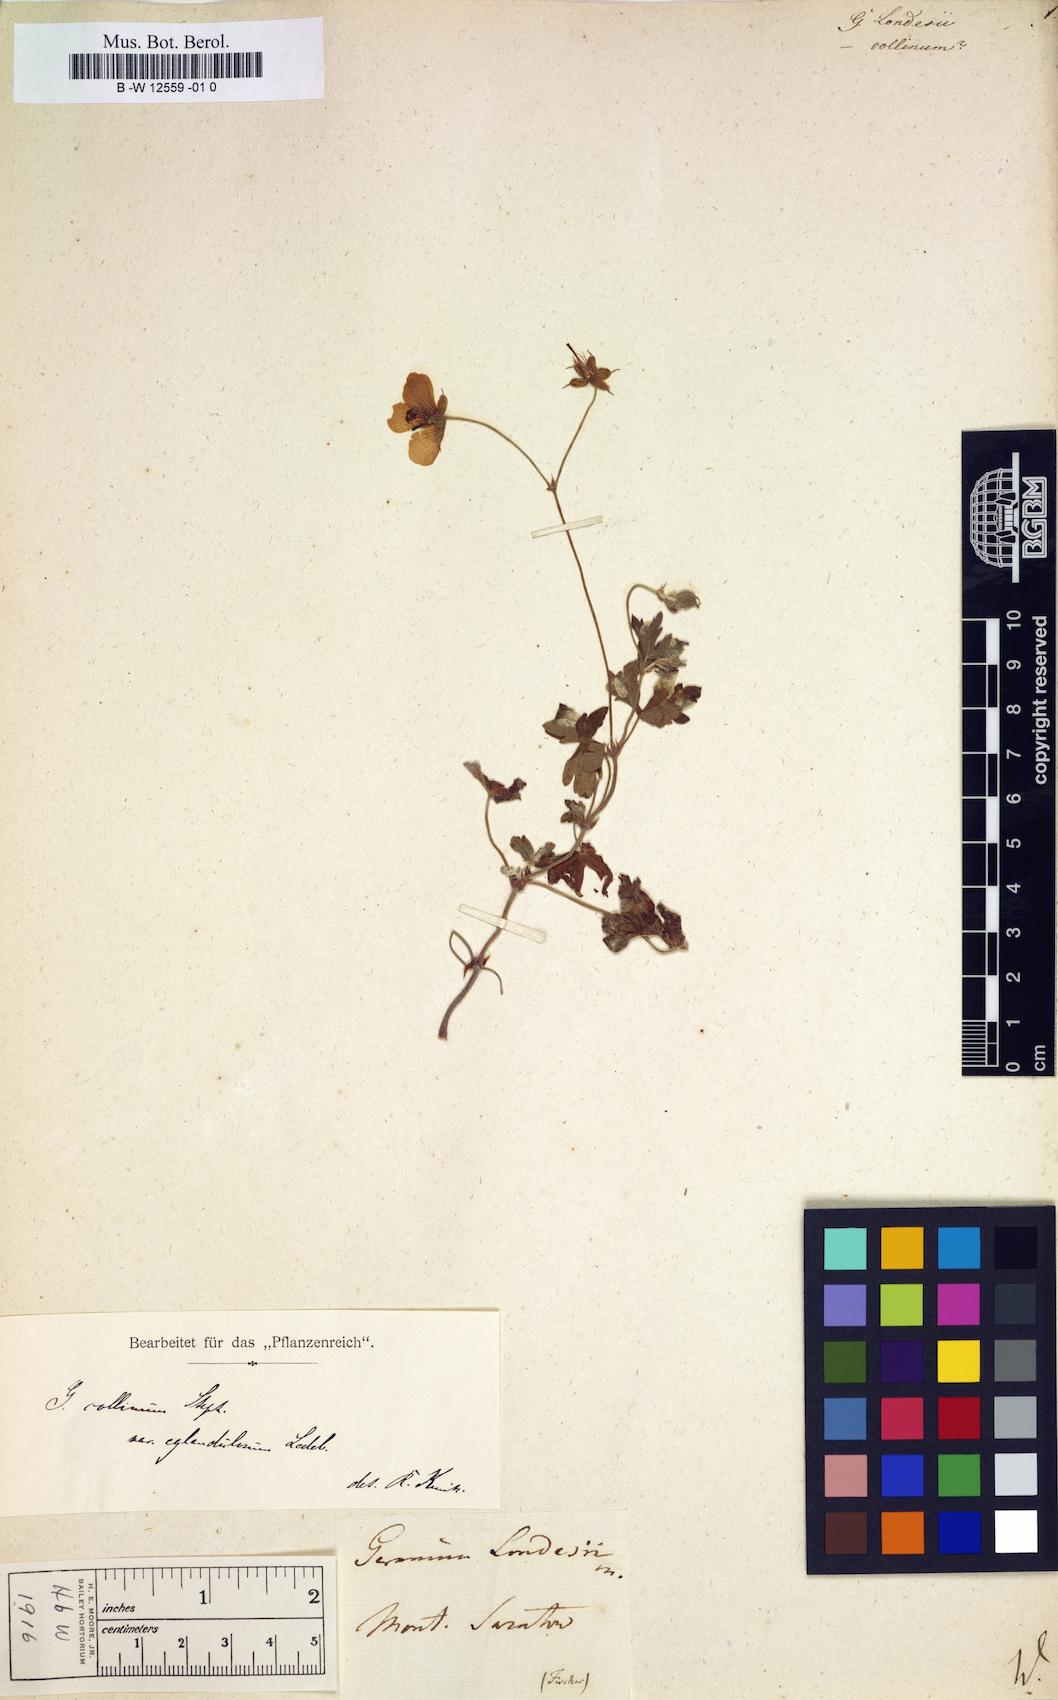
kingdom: Plantae
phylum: Tracheophyta
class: Magnoliopsida
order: Geraniales
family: Geraniaceae
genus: Geranium
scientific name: Geranium collinum
